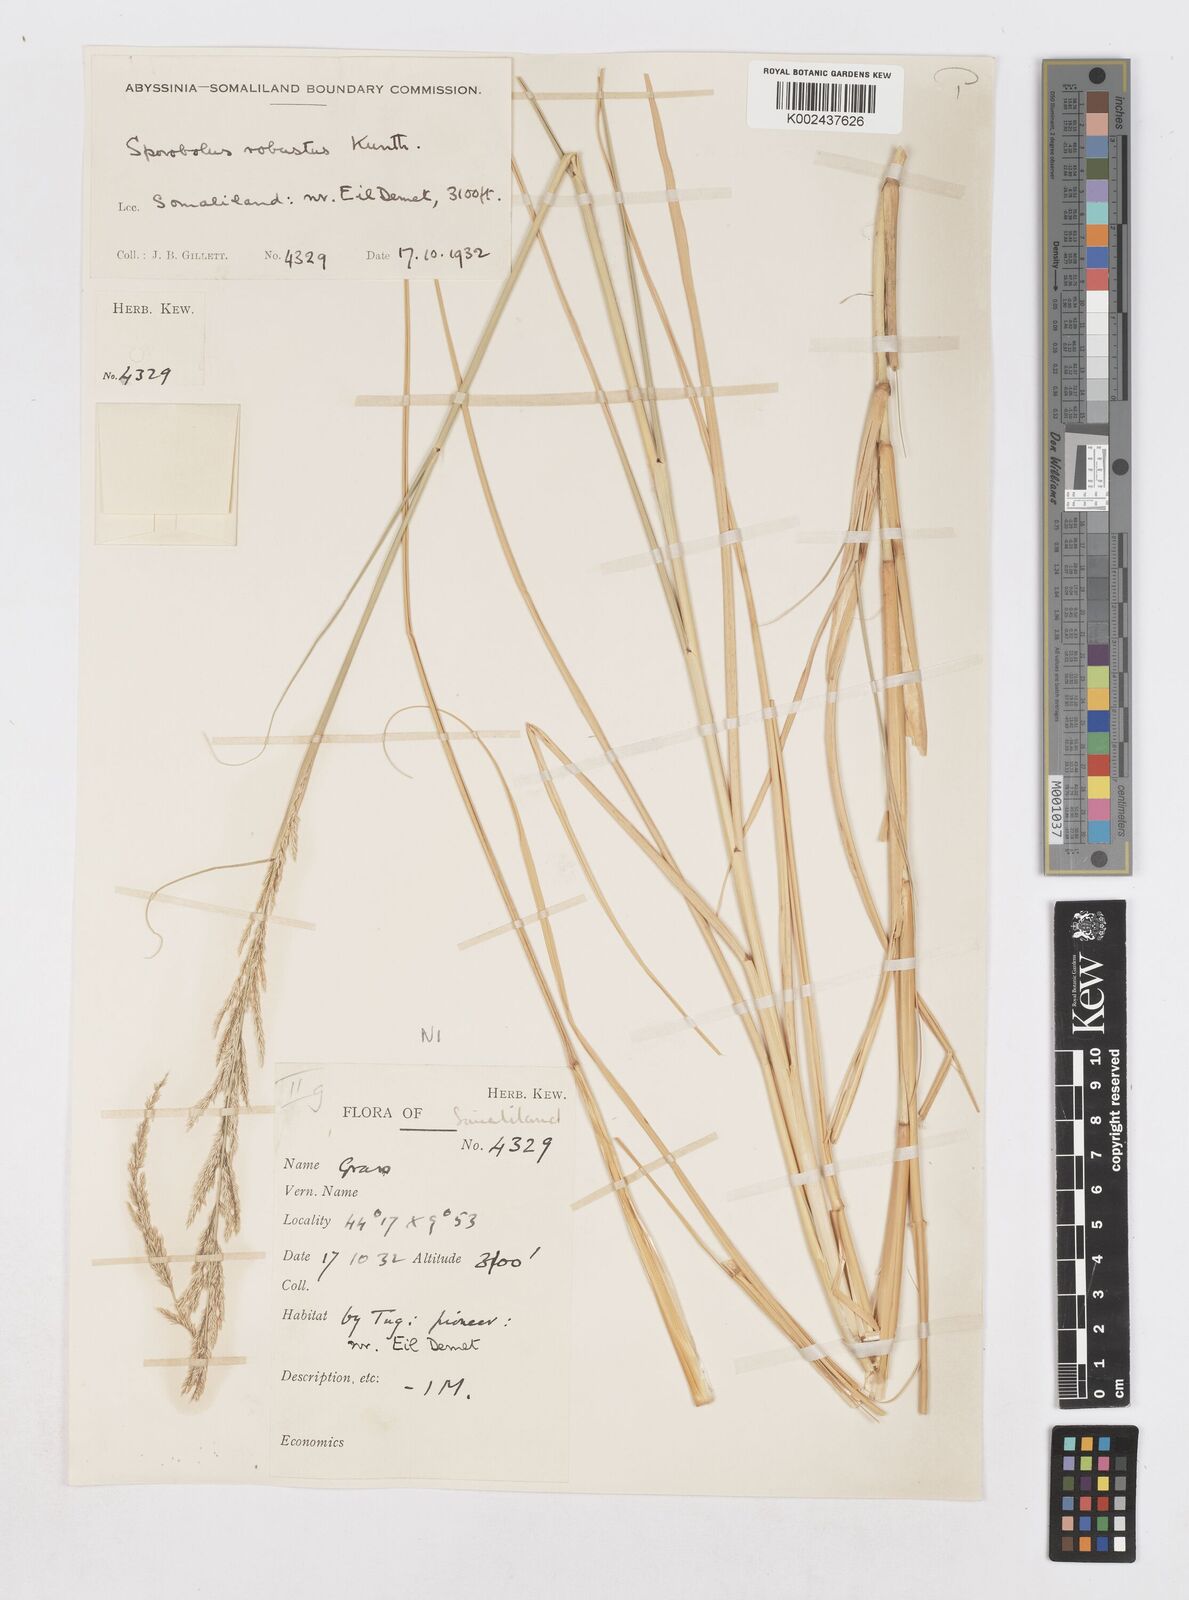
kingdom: Plantae
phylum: Tracheophyta
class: Liliopsida
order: Poales
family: Poaceae
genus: Sporobolus
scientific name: Sporobolus consimilis
